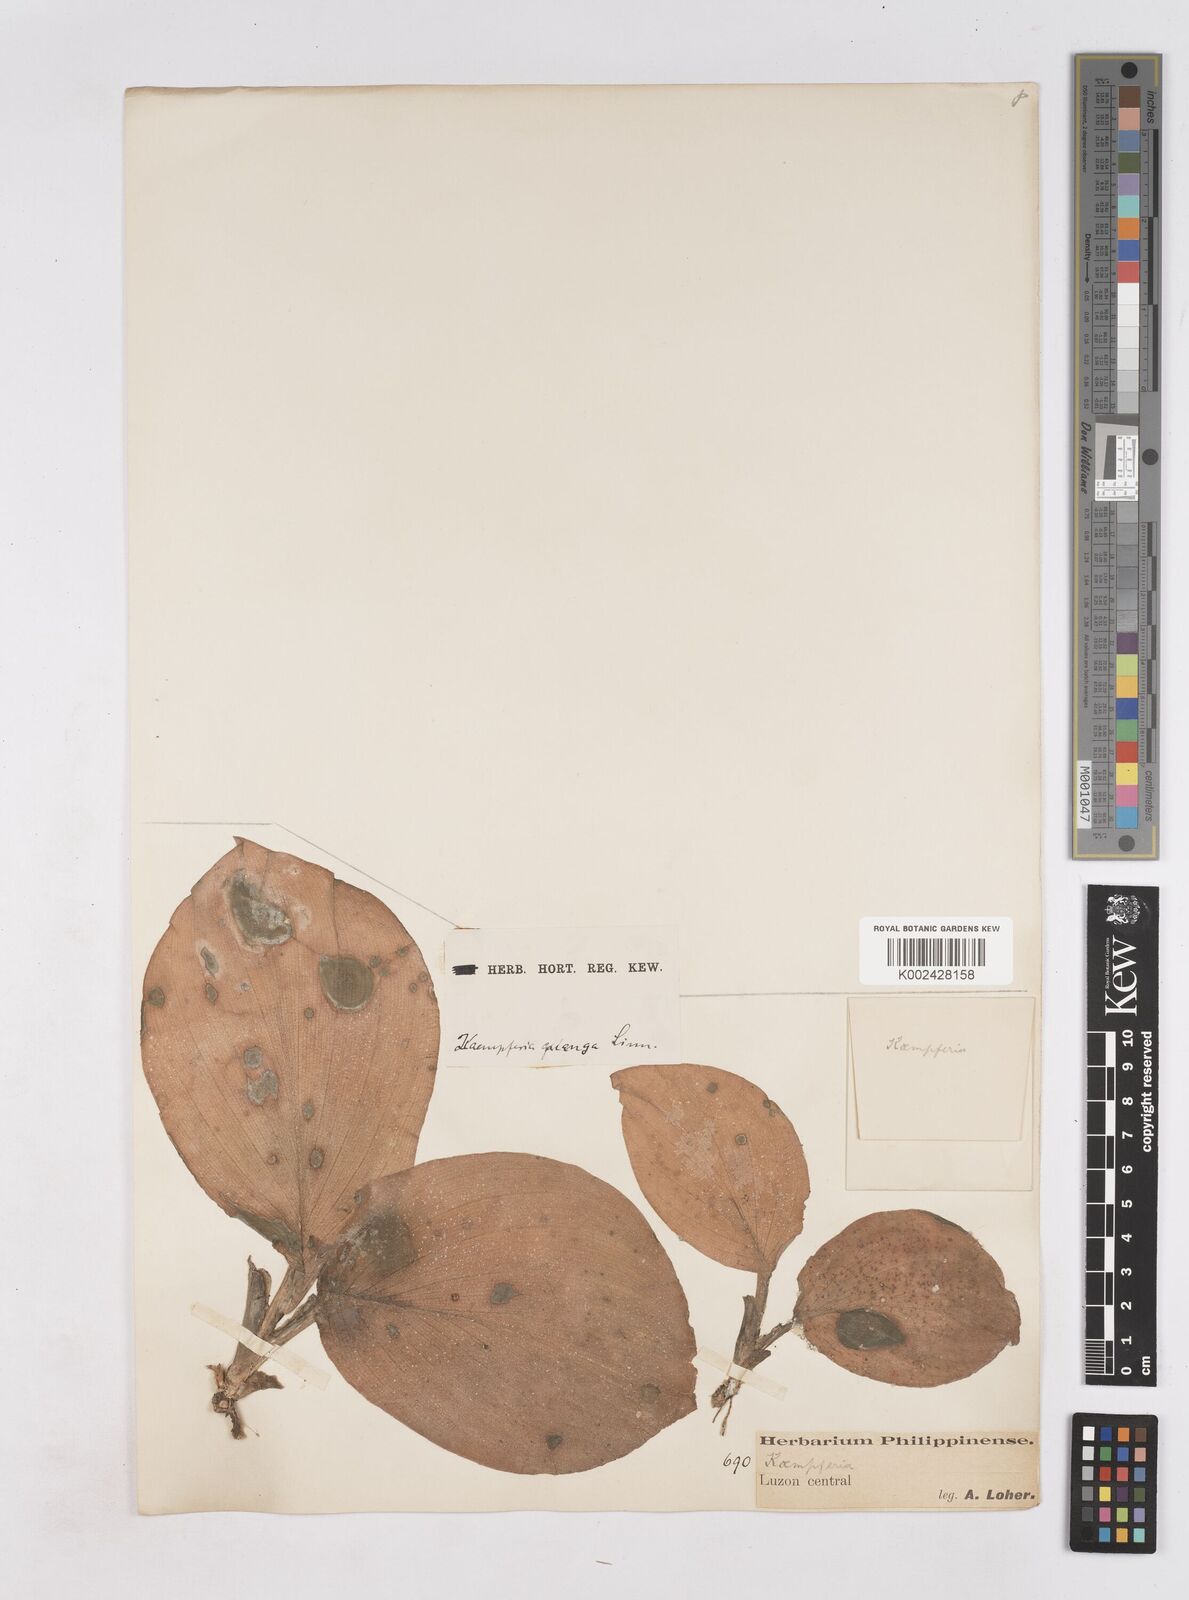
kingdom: Plantae
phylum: Tracheophyta
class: Liliopsida
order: Zingiberales
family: Zingiberaceae
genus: Kaempferia
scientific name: Kaempferia galanga
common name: Aromatic ginger
